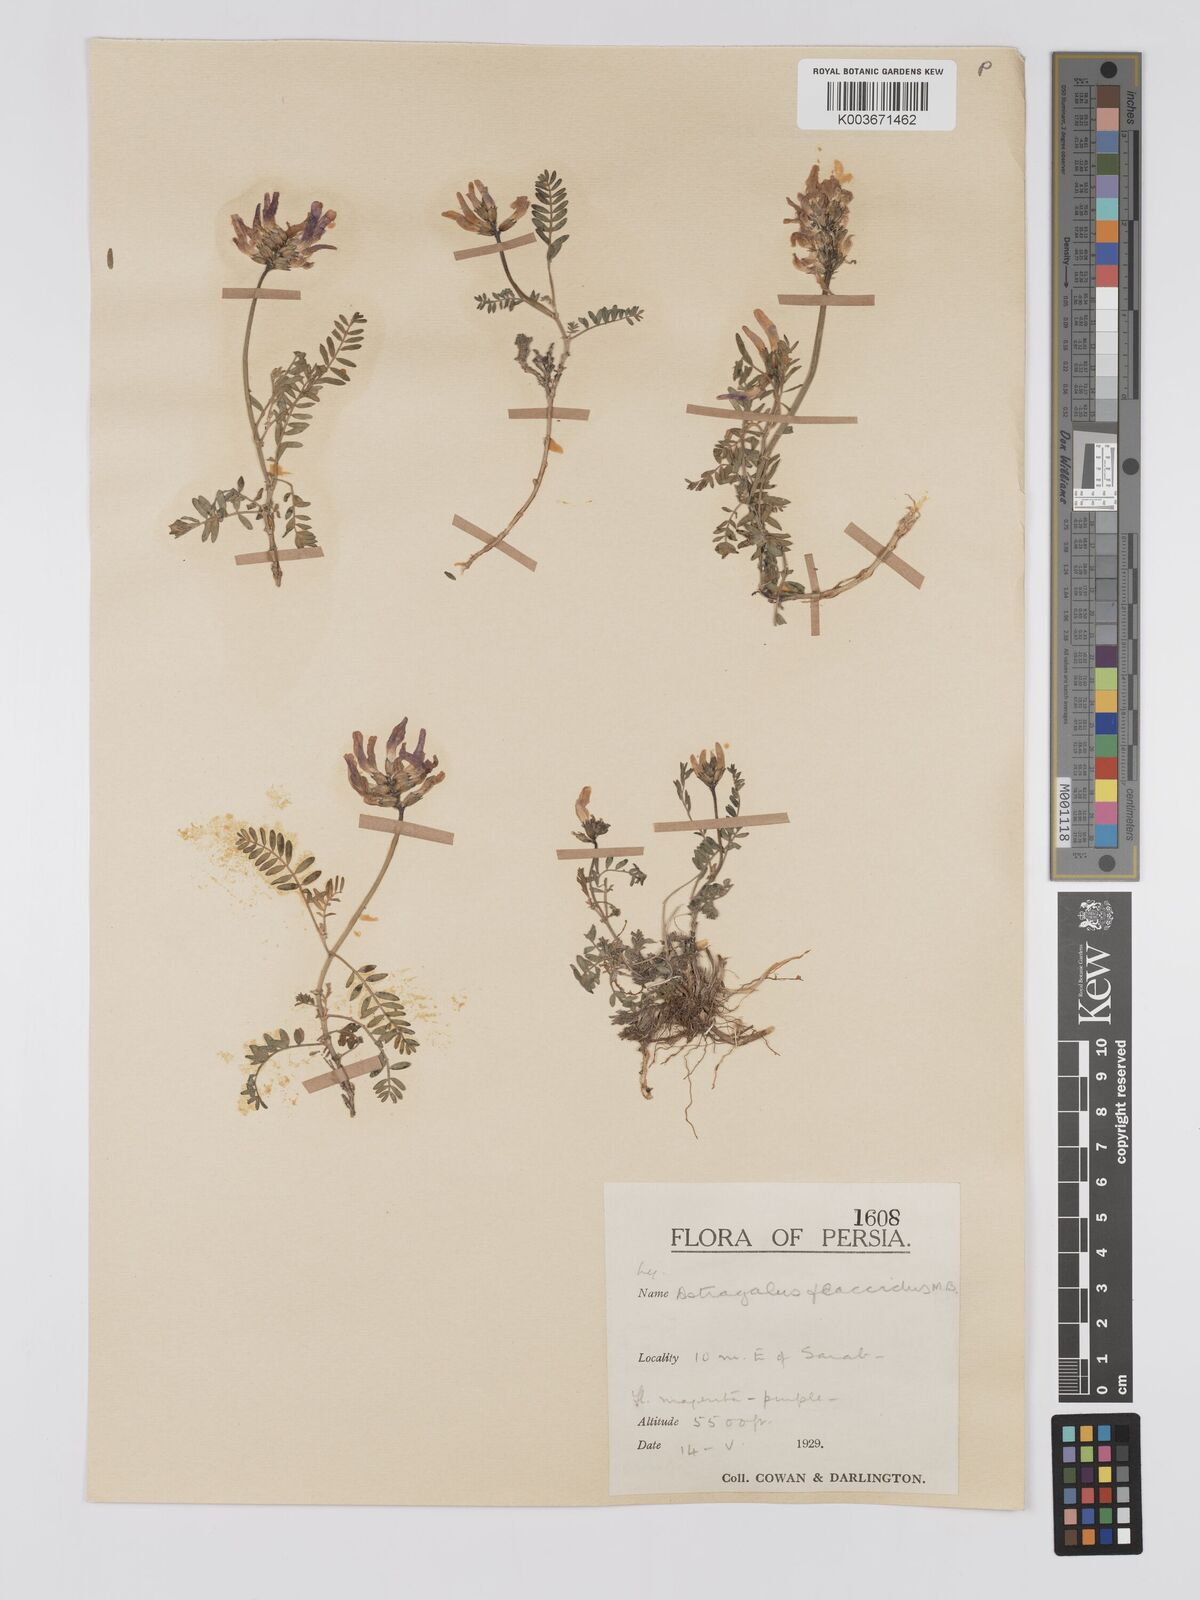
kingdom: Plantae
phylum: Tracheophyta
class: Magnoliopsida
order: Fabales
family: Fabaceae
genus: Astragalus
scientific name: Astragalus humifusus
